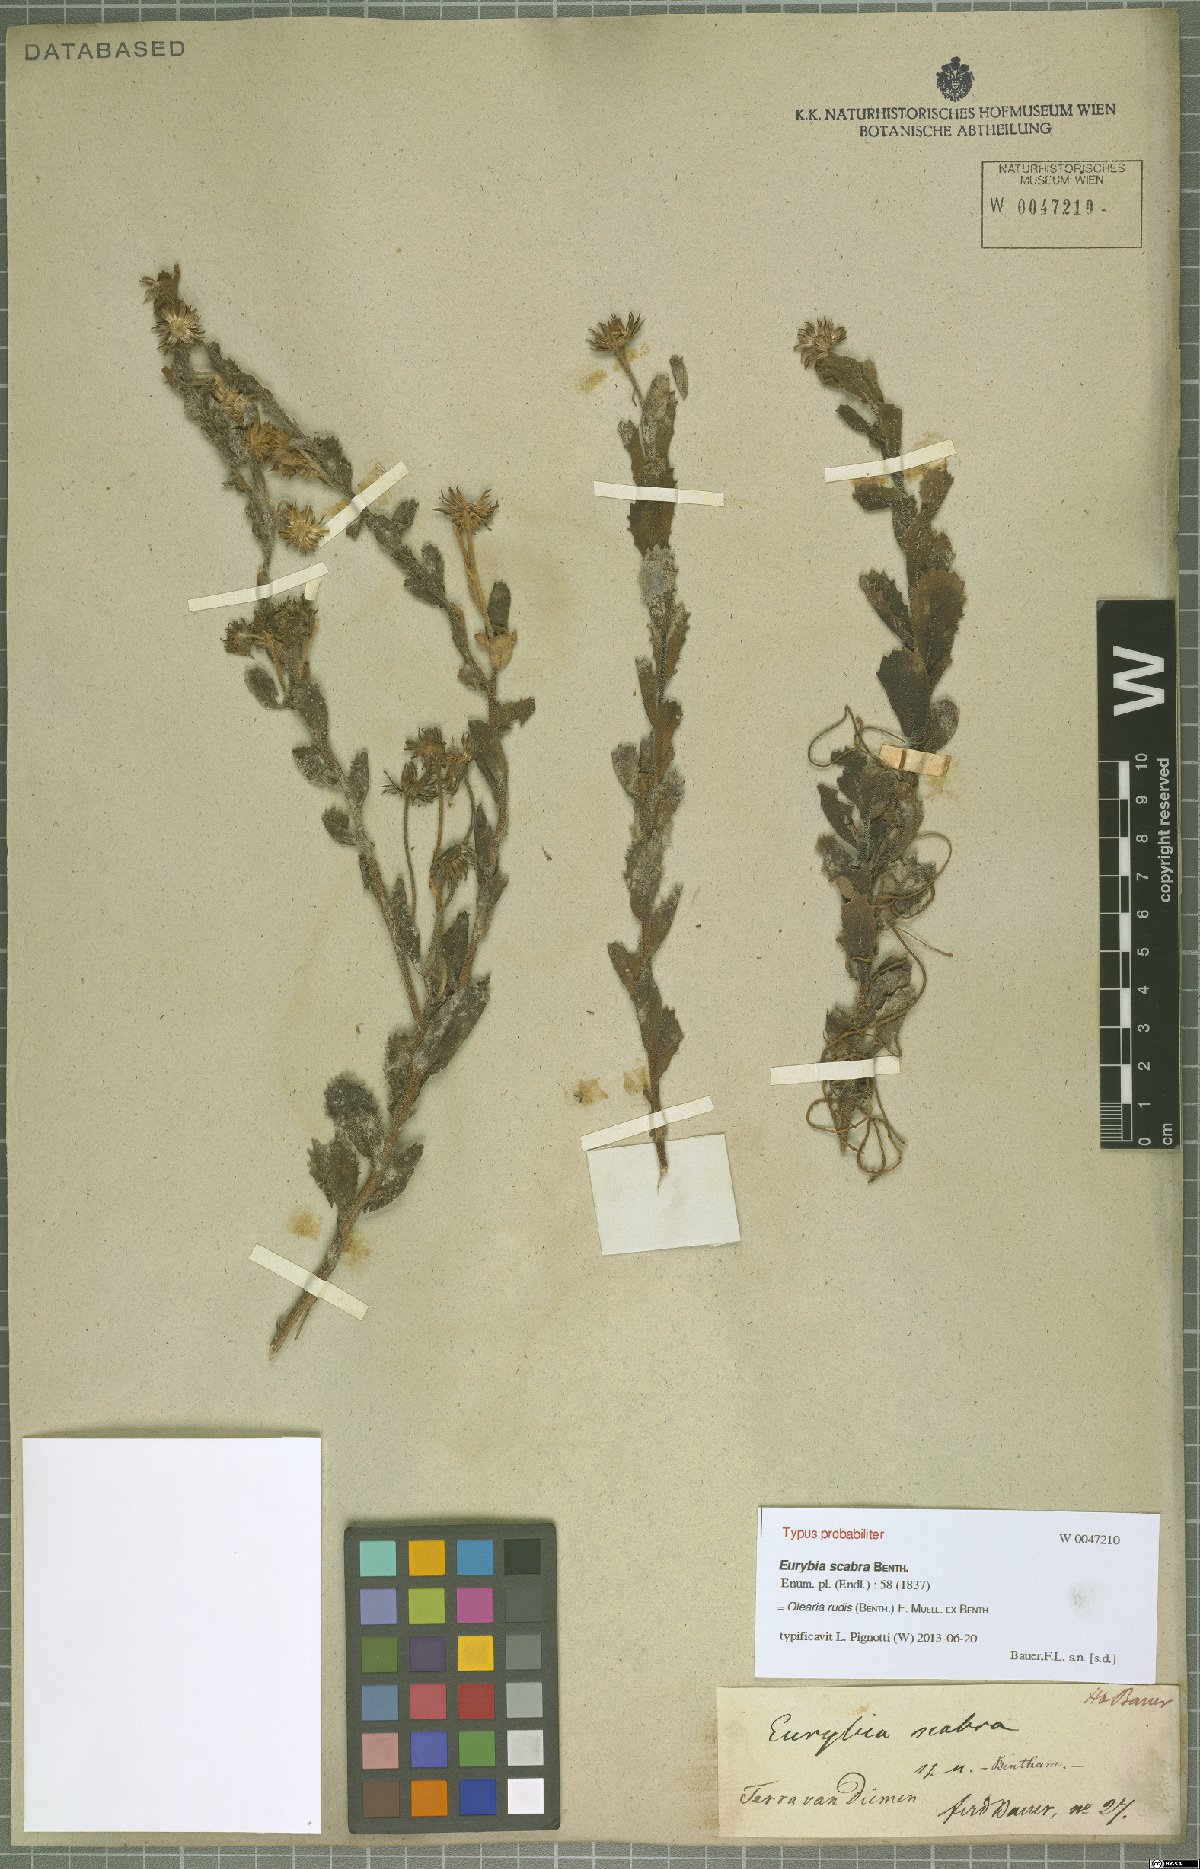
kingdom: Plantae
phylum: Tracheophyta
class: Magnoliopsida
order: Asterales
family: Asteraceae
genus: Muellerolaria
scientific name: Muellerolaria rudis
